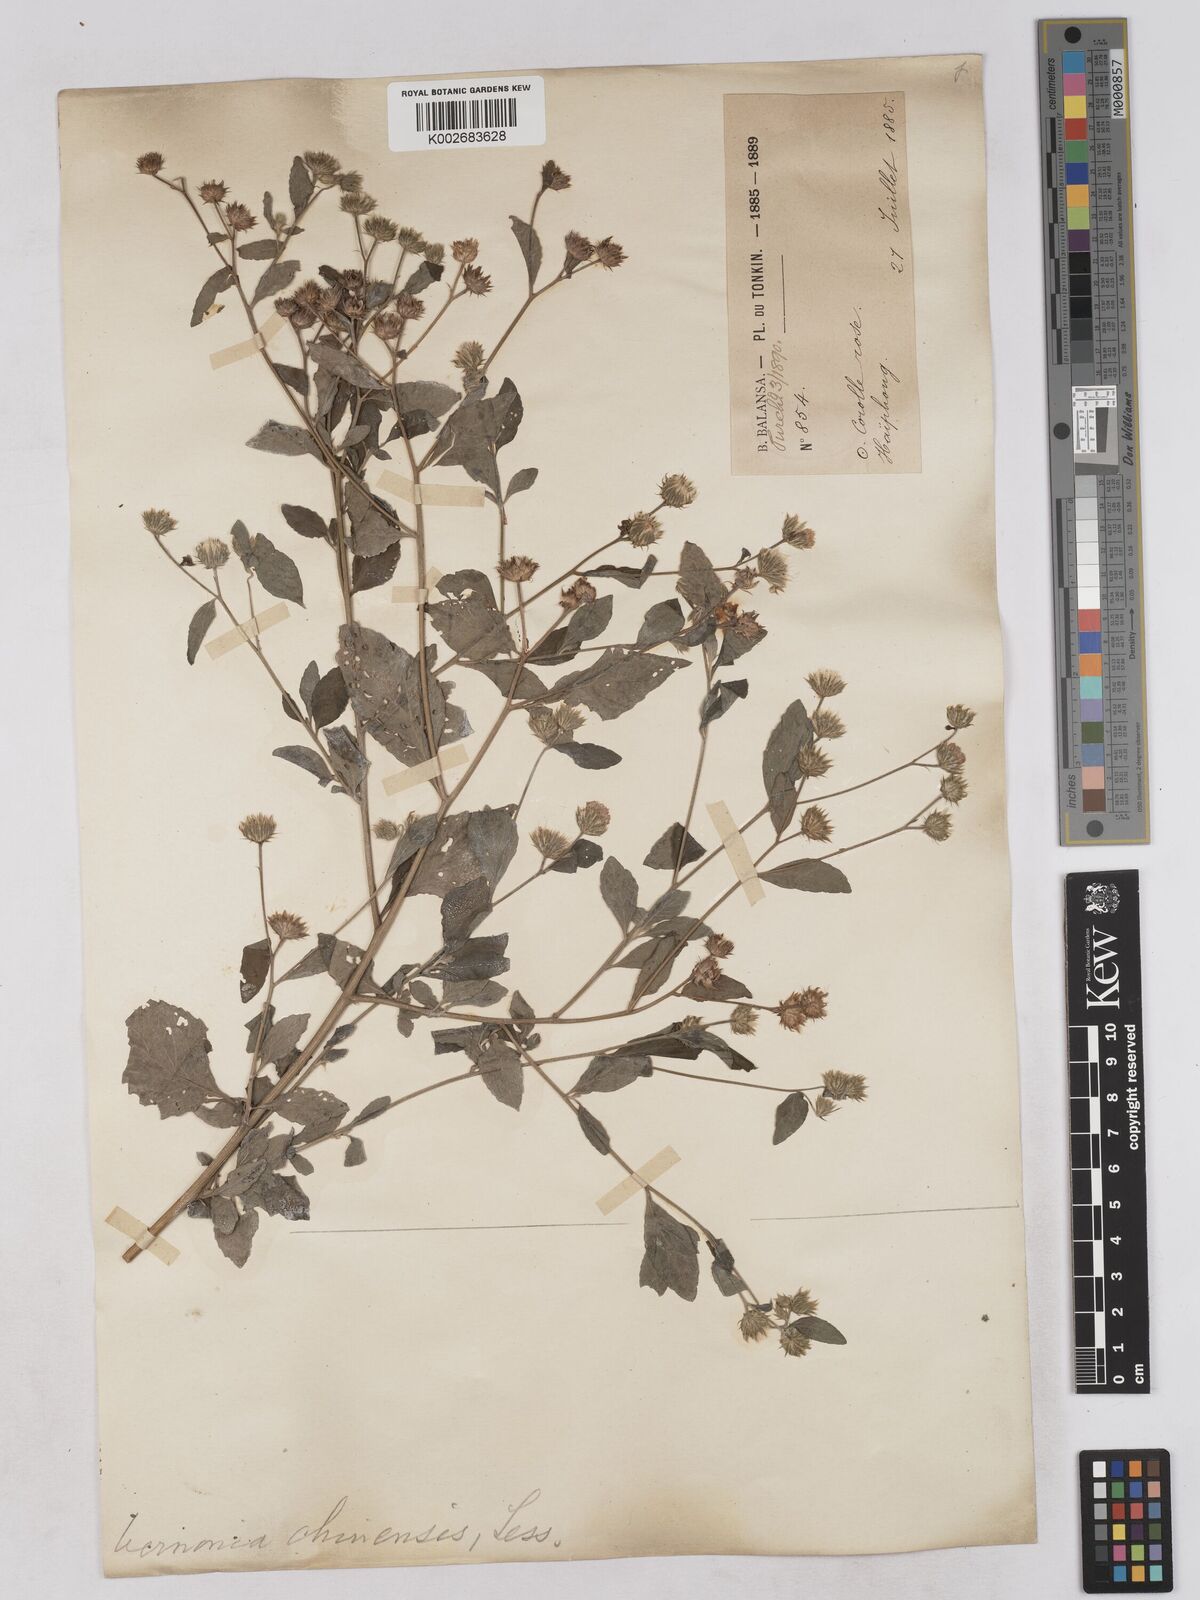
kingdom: Plantae
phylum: Tracheophyta
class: Magnoliopsida
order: Asterales
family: Asteraceae
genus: Cyanthillium
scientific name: Cyanthillium patulum
